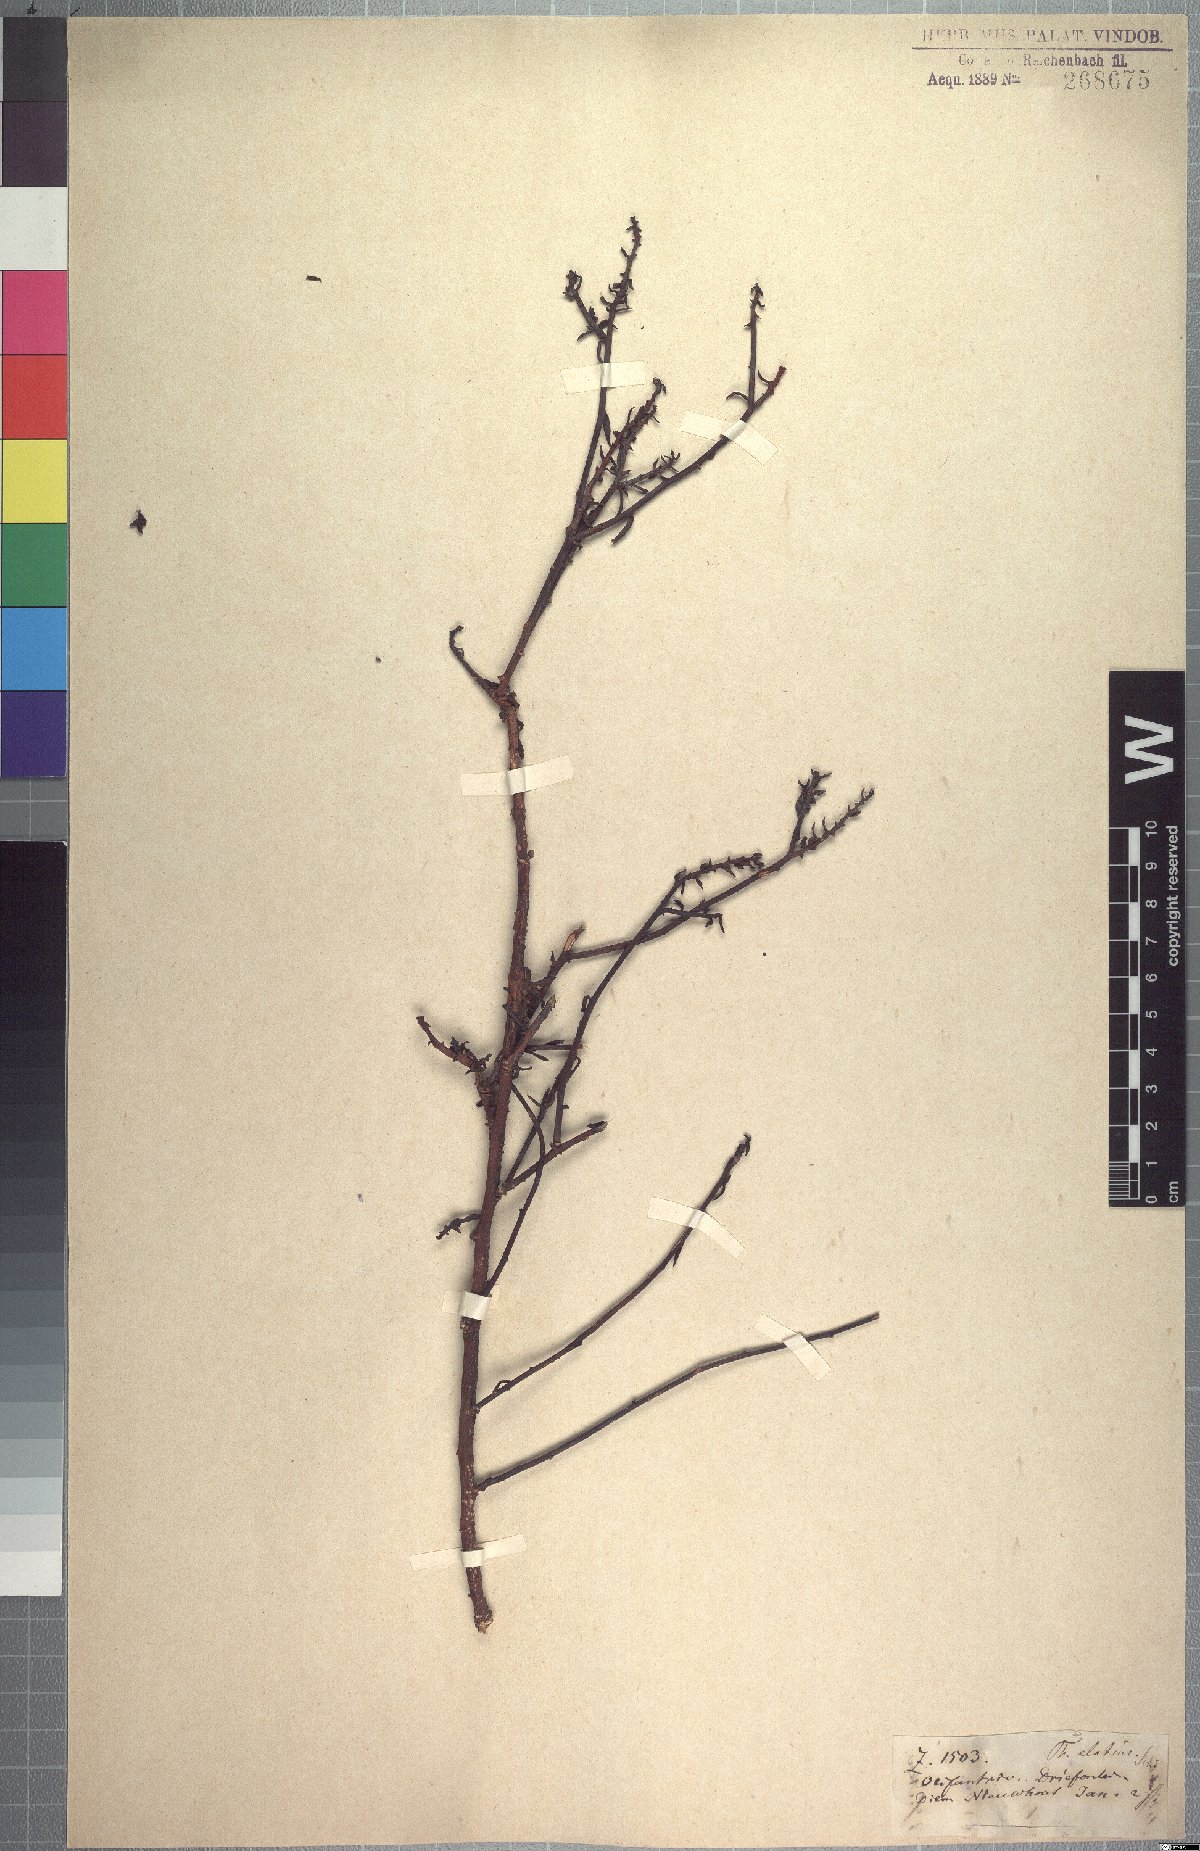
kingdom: Plantae
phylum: Tracheophyta
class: Magnoliopsida
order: Santalales
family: Thesiaceae
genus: Thesium
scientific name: Thesium elatius
